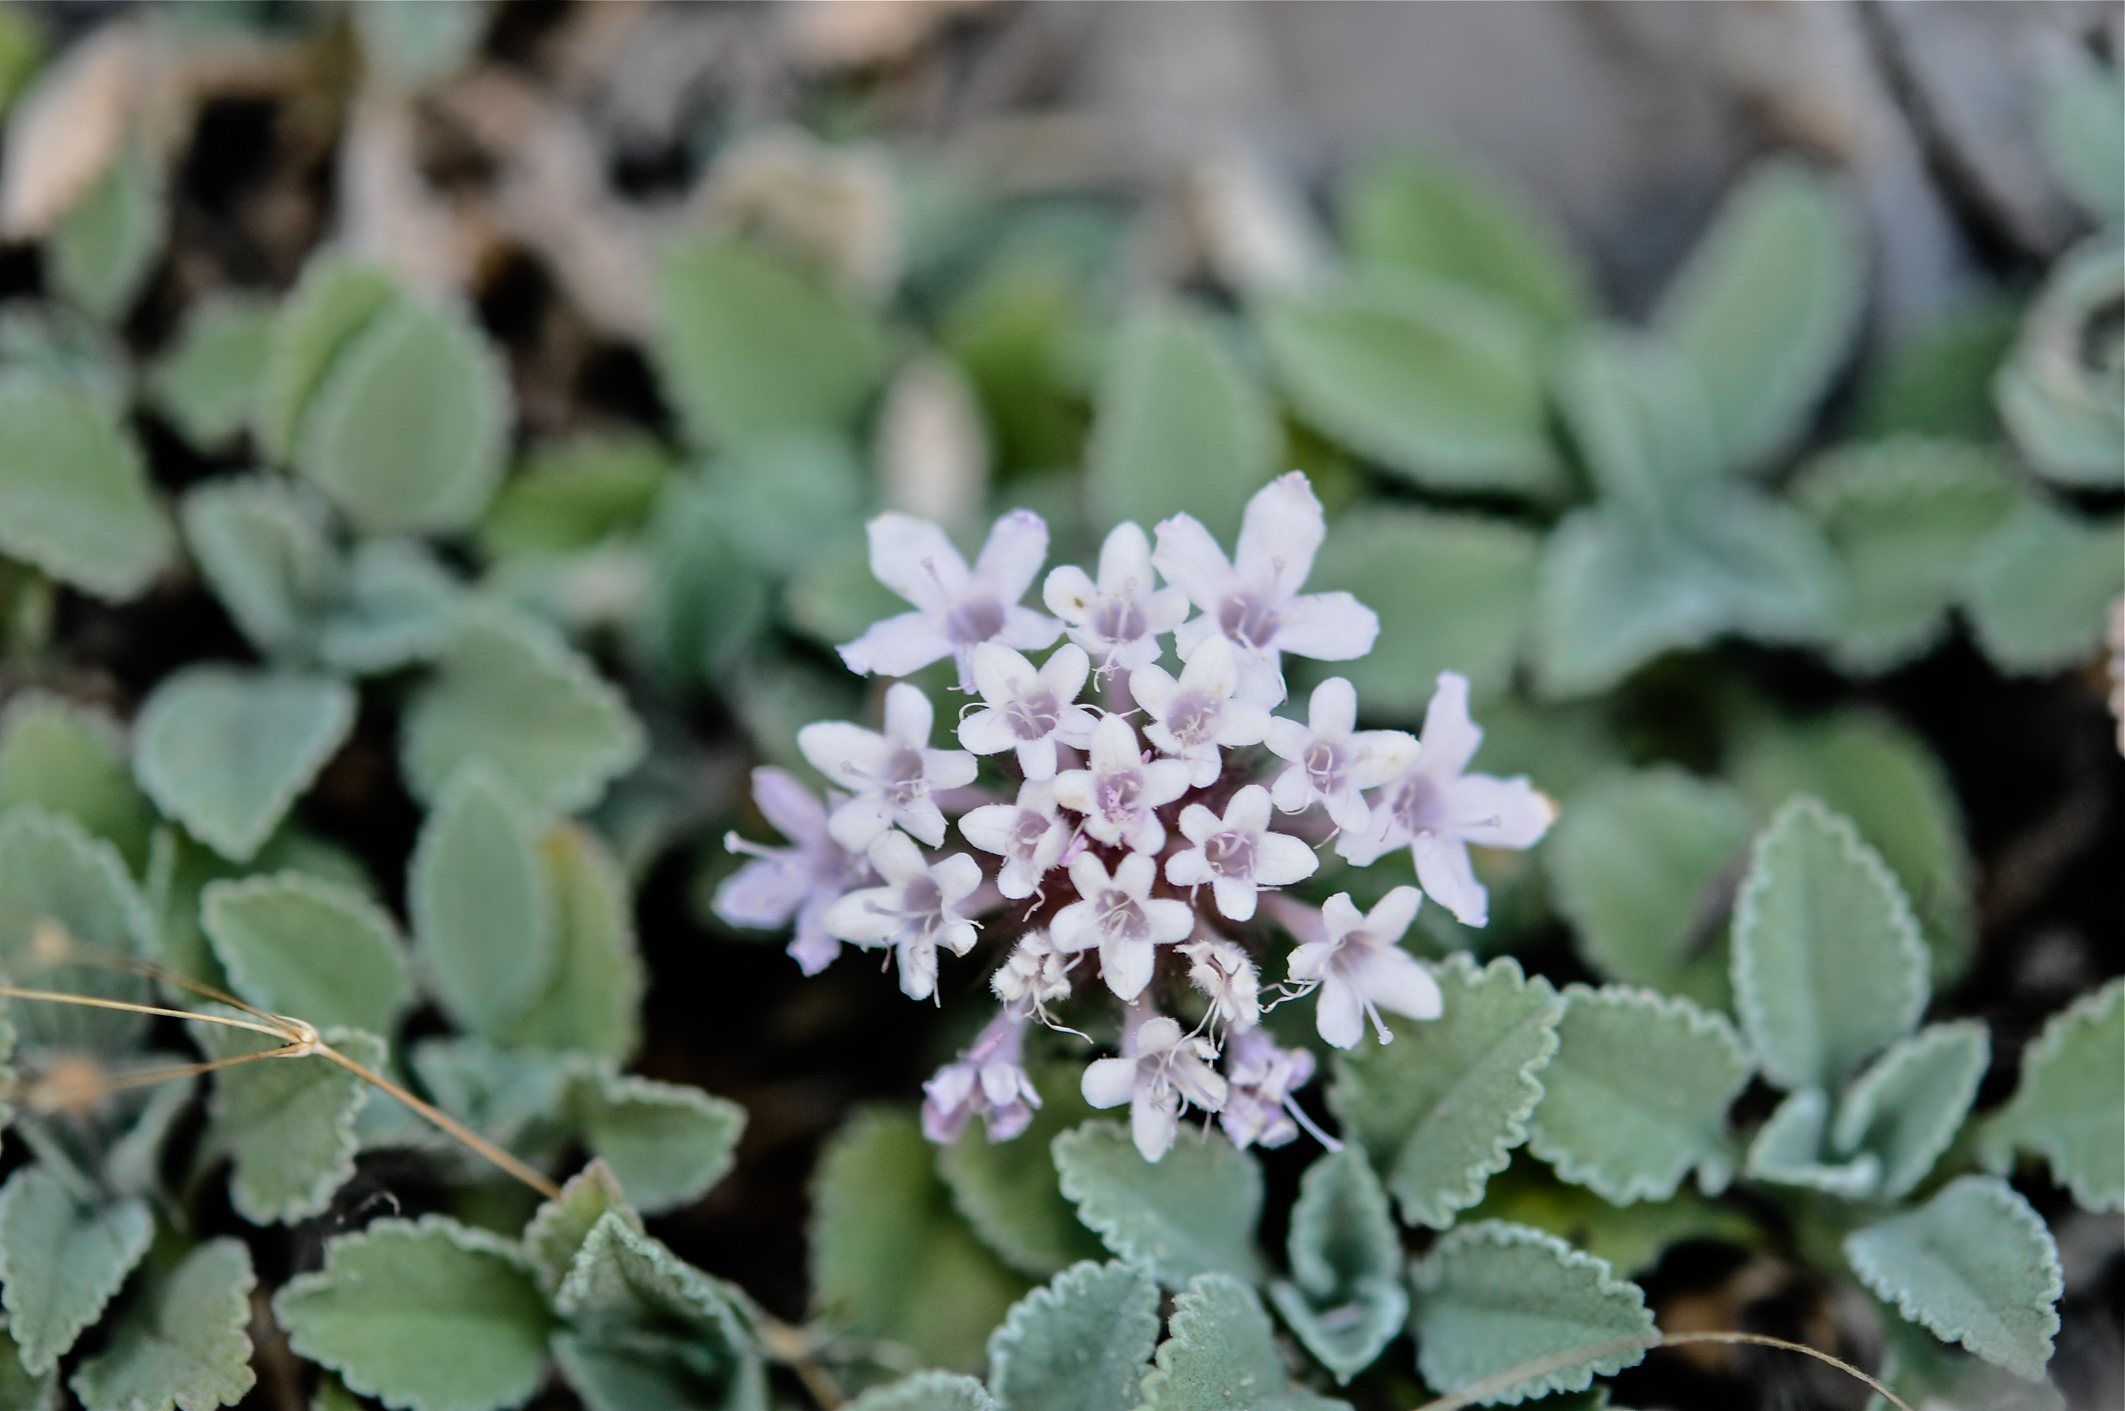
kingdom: Plantae
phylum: Tracheophyta
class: Magnoliopsida
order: Dipsacales
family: Caprifoliaceae
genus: Pterocephalus
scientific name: Pterocephalus perennis
